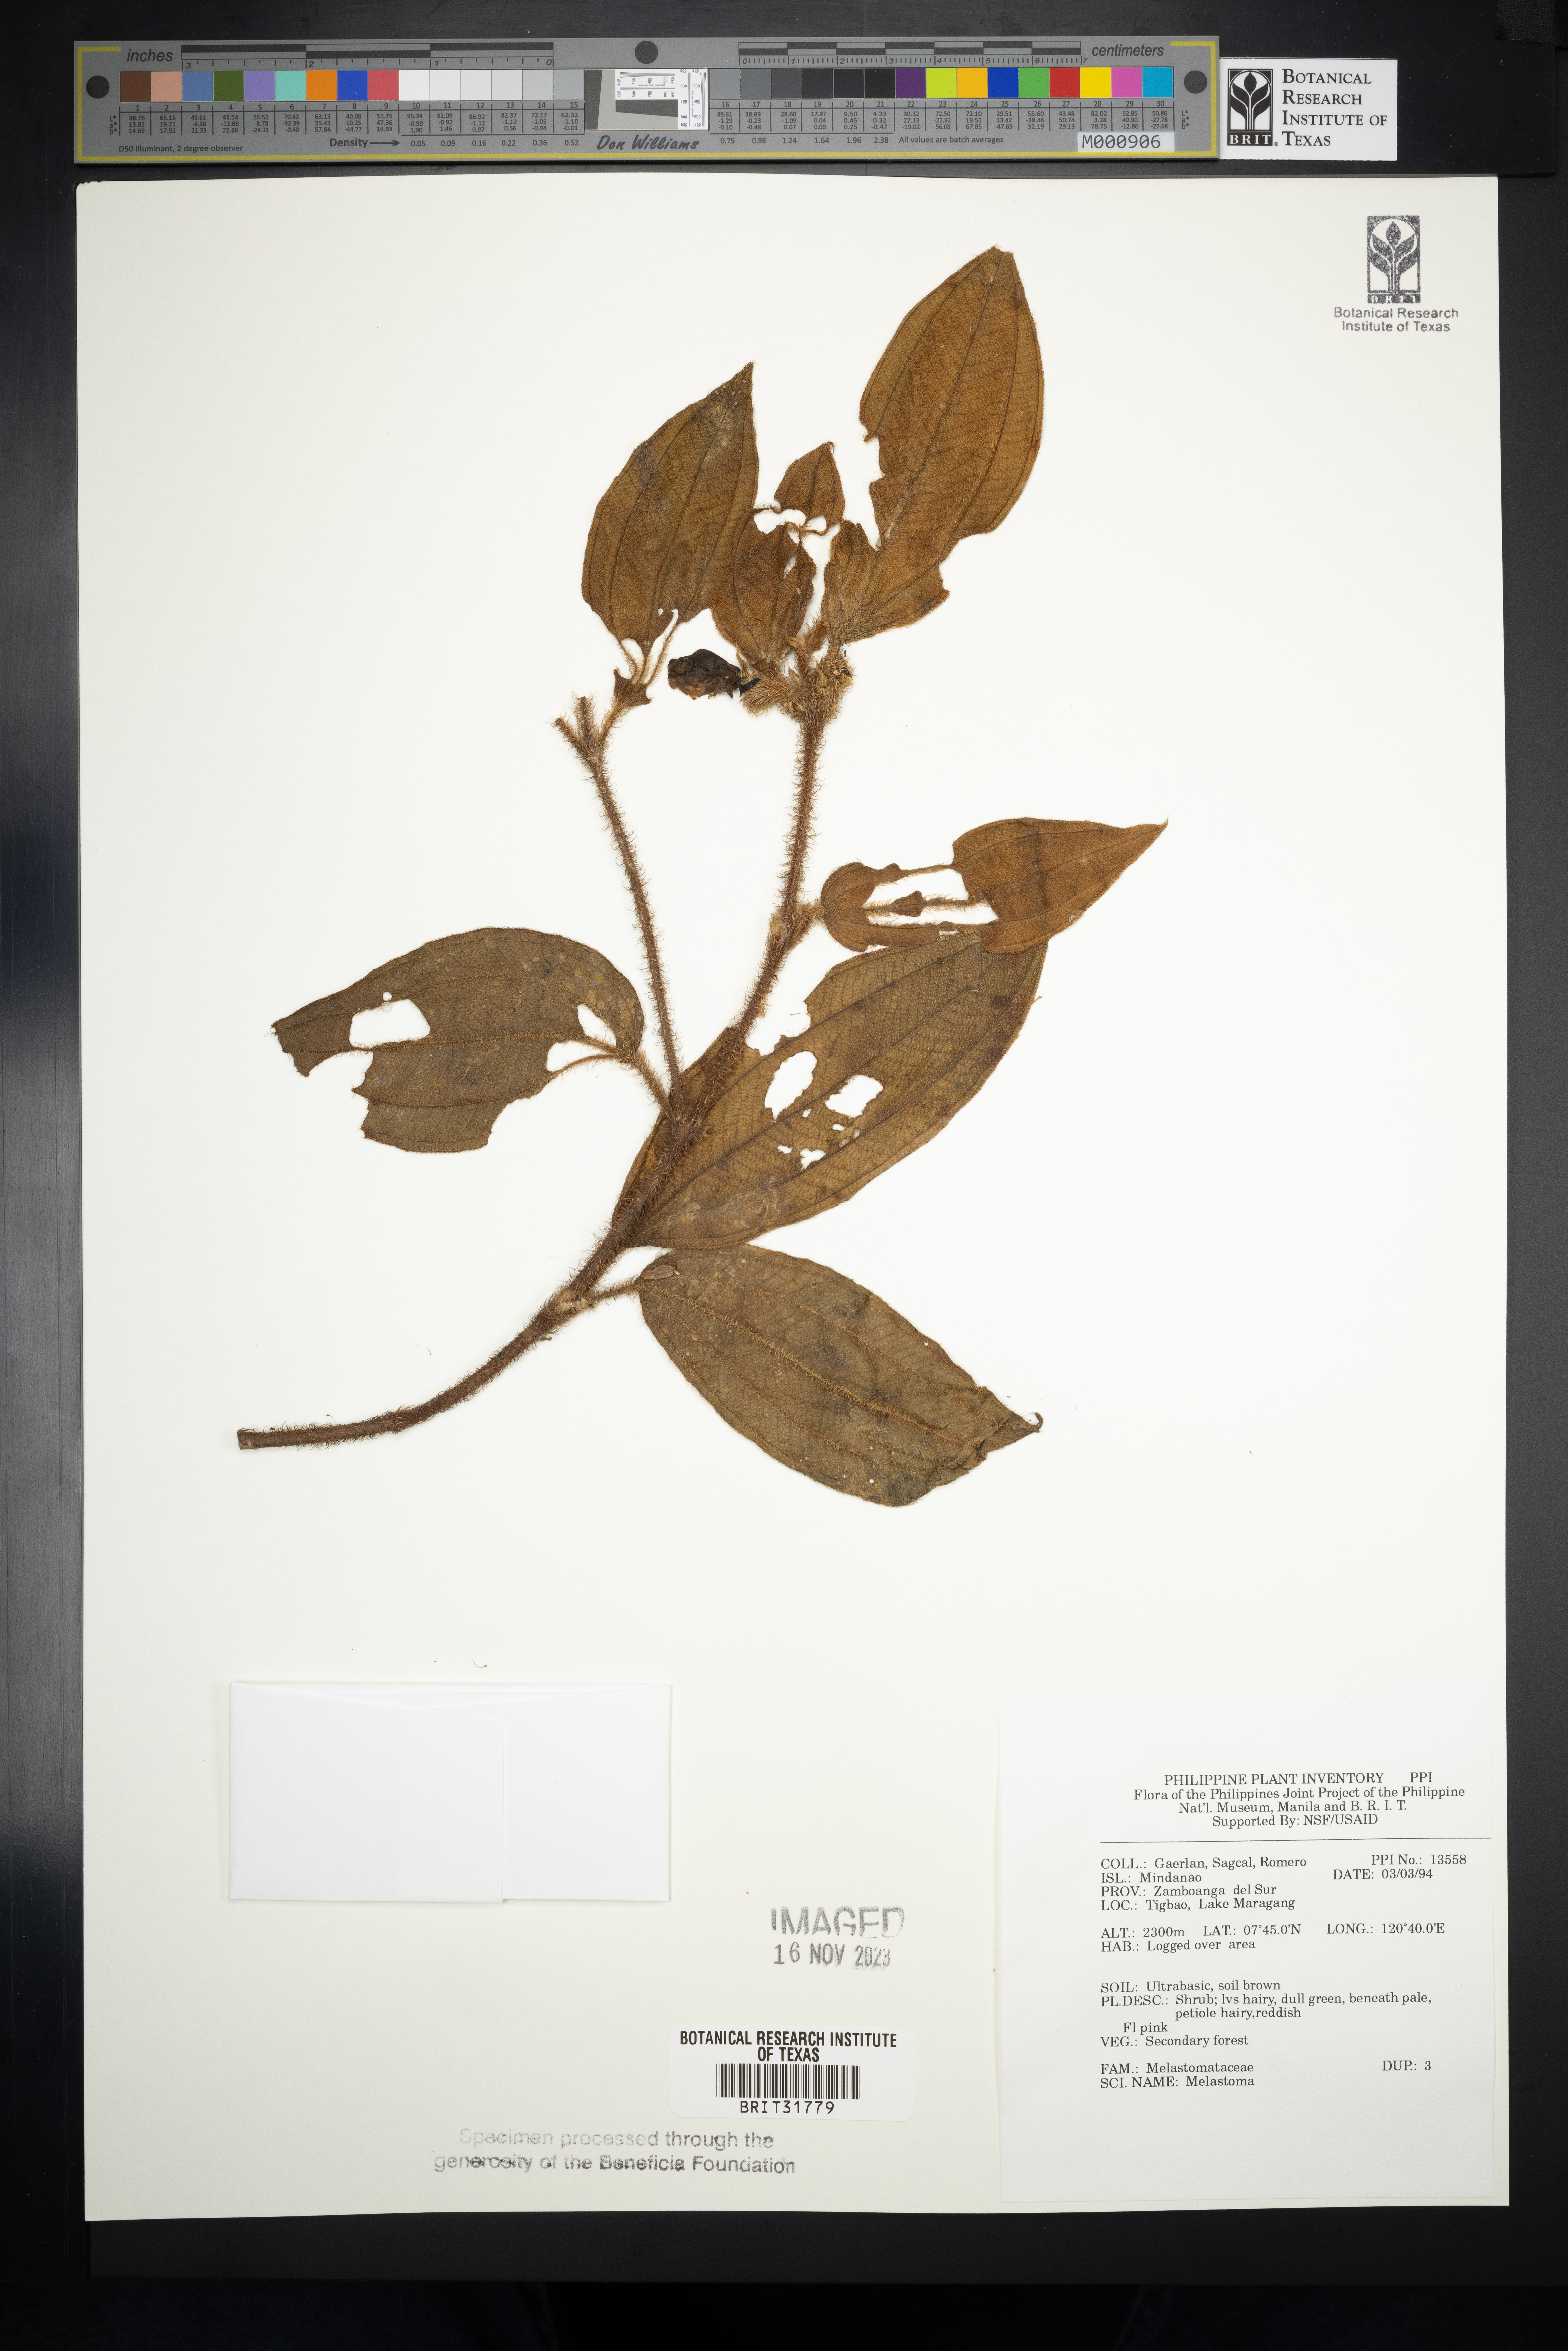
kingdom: Plantae
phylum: Tracheophyta
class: Magnoliopsida
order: Myrtales
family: Melastomataceae
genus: Melastoma
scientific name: Melastoma
